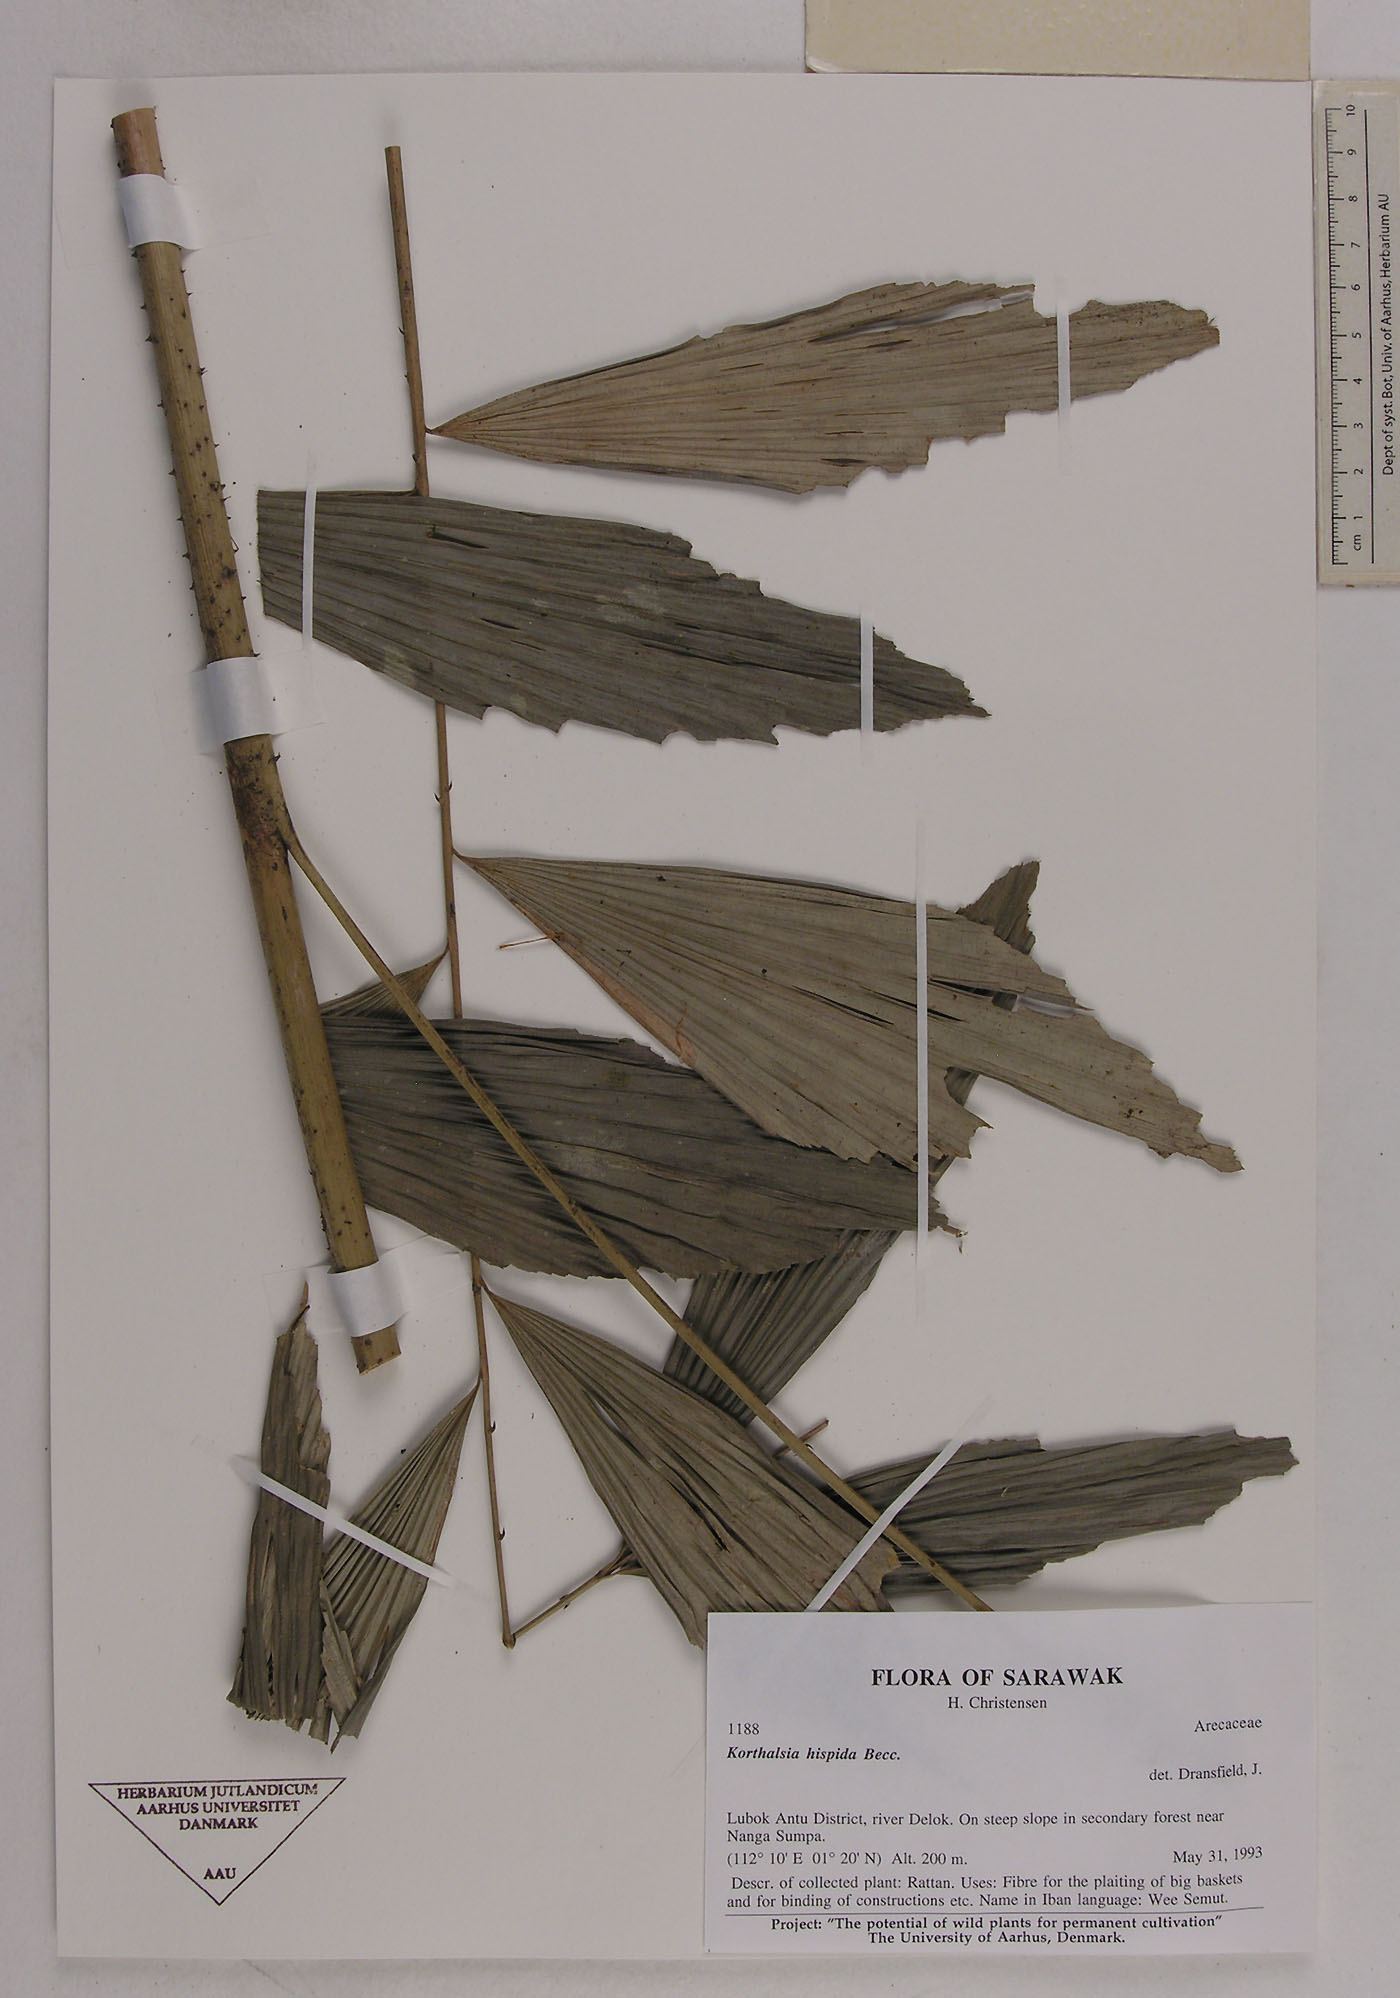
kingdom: Plantae
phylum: Tracheophyta
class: Liliopsida
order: Arecales
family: Arecaceae
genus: Korthalsia
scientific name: Korthalsia hispida
